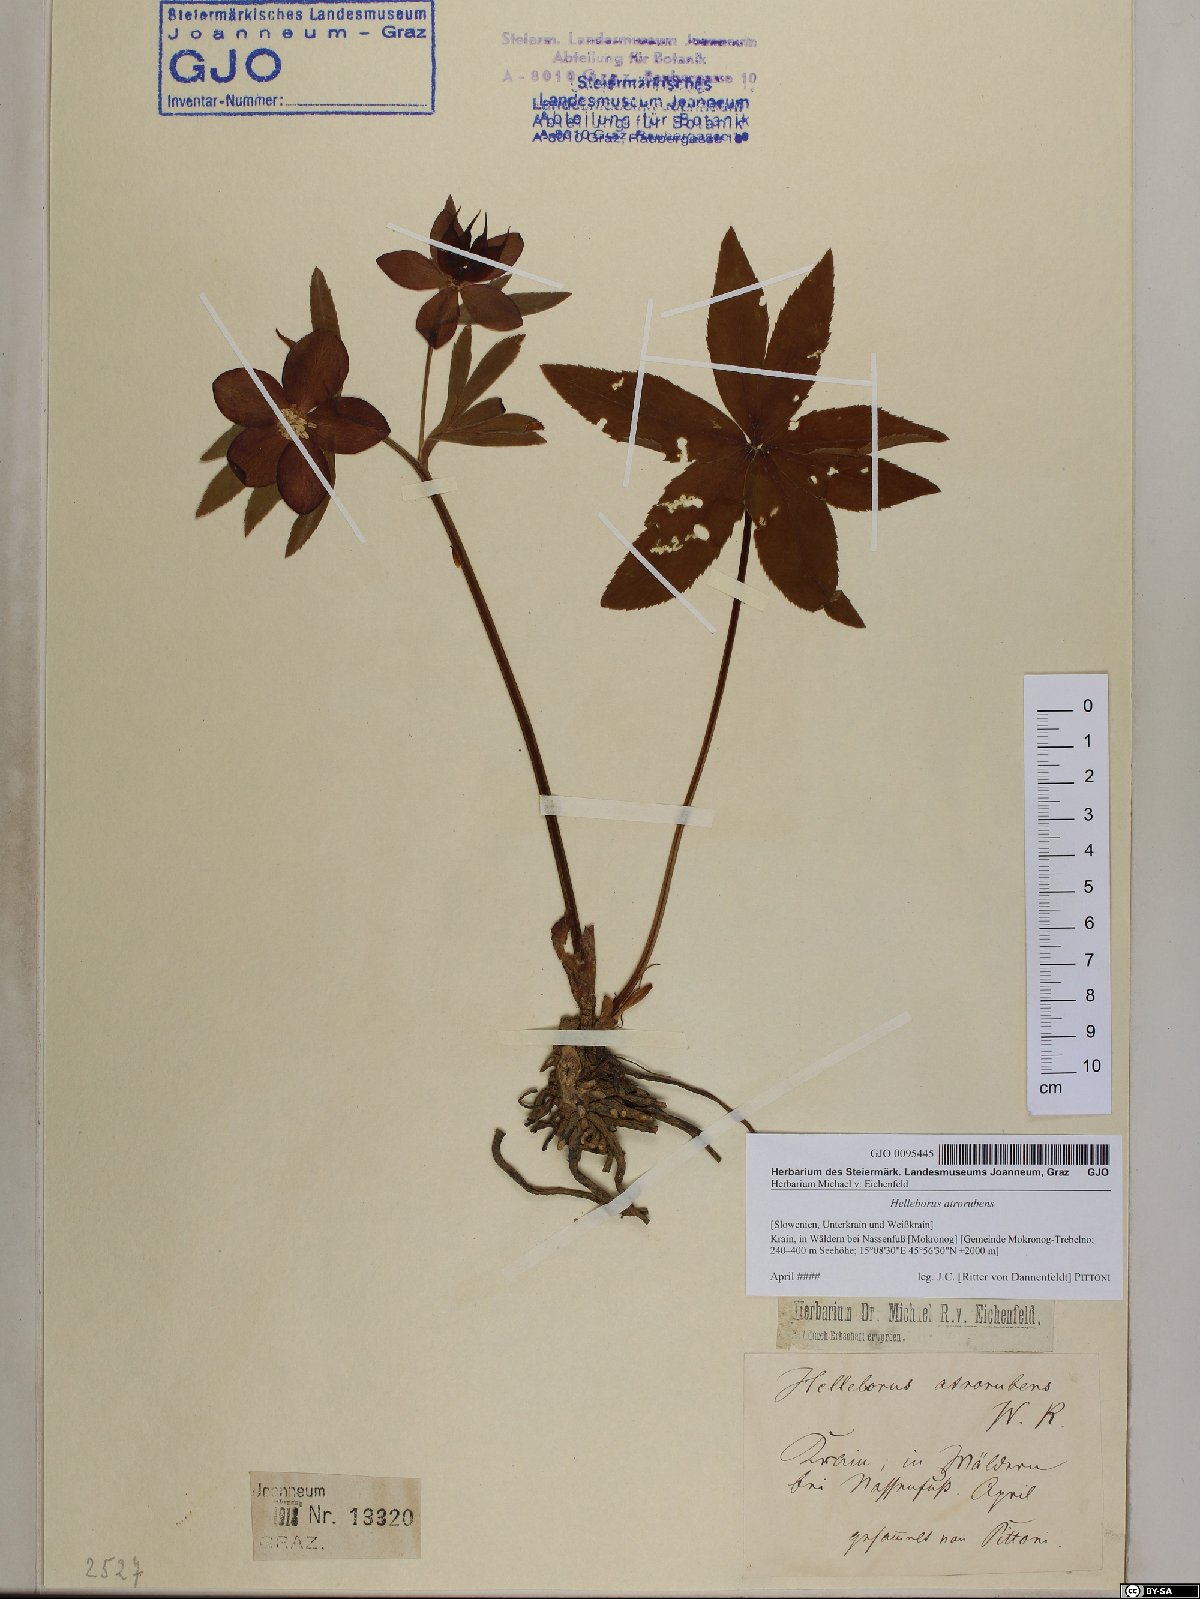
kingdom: Plantae
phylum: Tracheophyta
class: Magnoliopsida
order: Ranunculales
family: Ranunculaceae
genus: Helleborus
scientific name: Helleborus dumetorum
